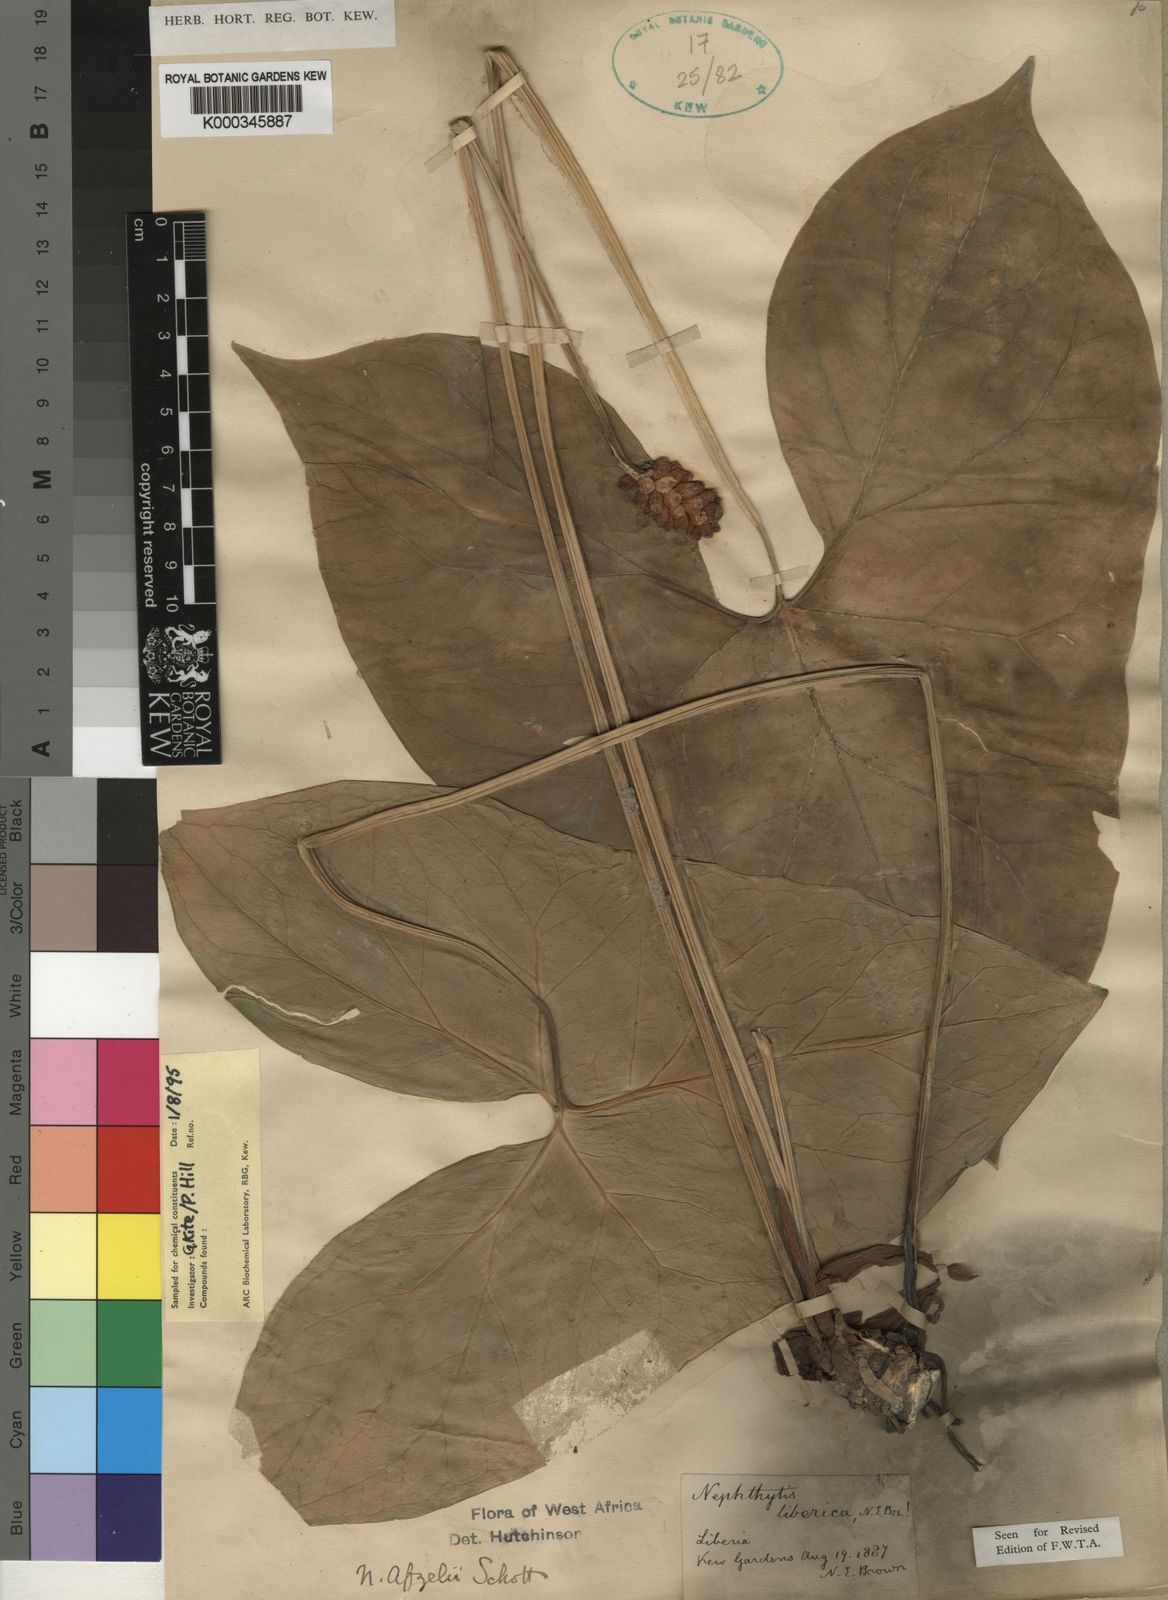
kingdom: Plantae
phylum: Tracheophyta
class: Liliopsida
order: Alismatales
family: Araceae
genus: Nephthytis
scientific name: Nephthytis afzelii
